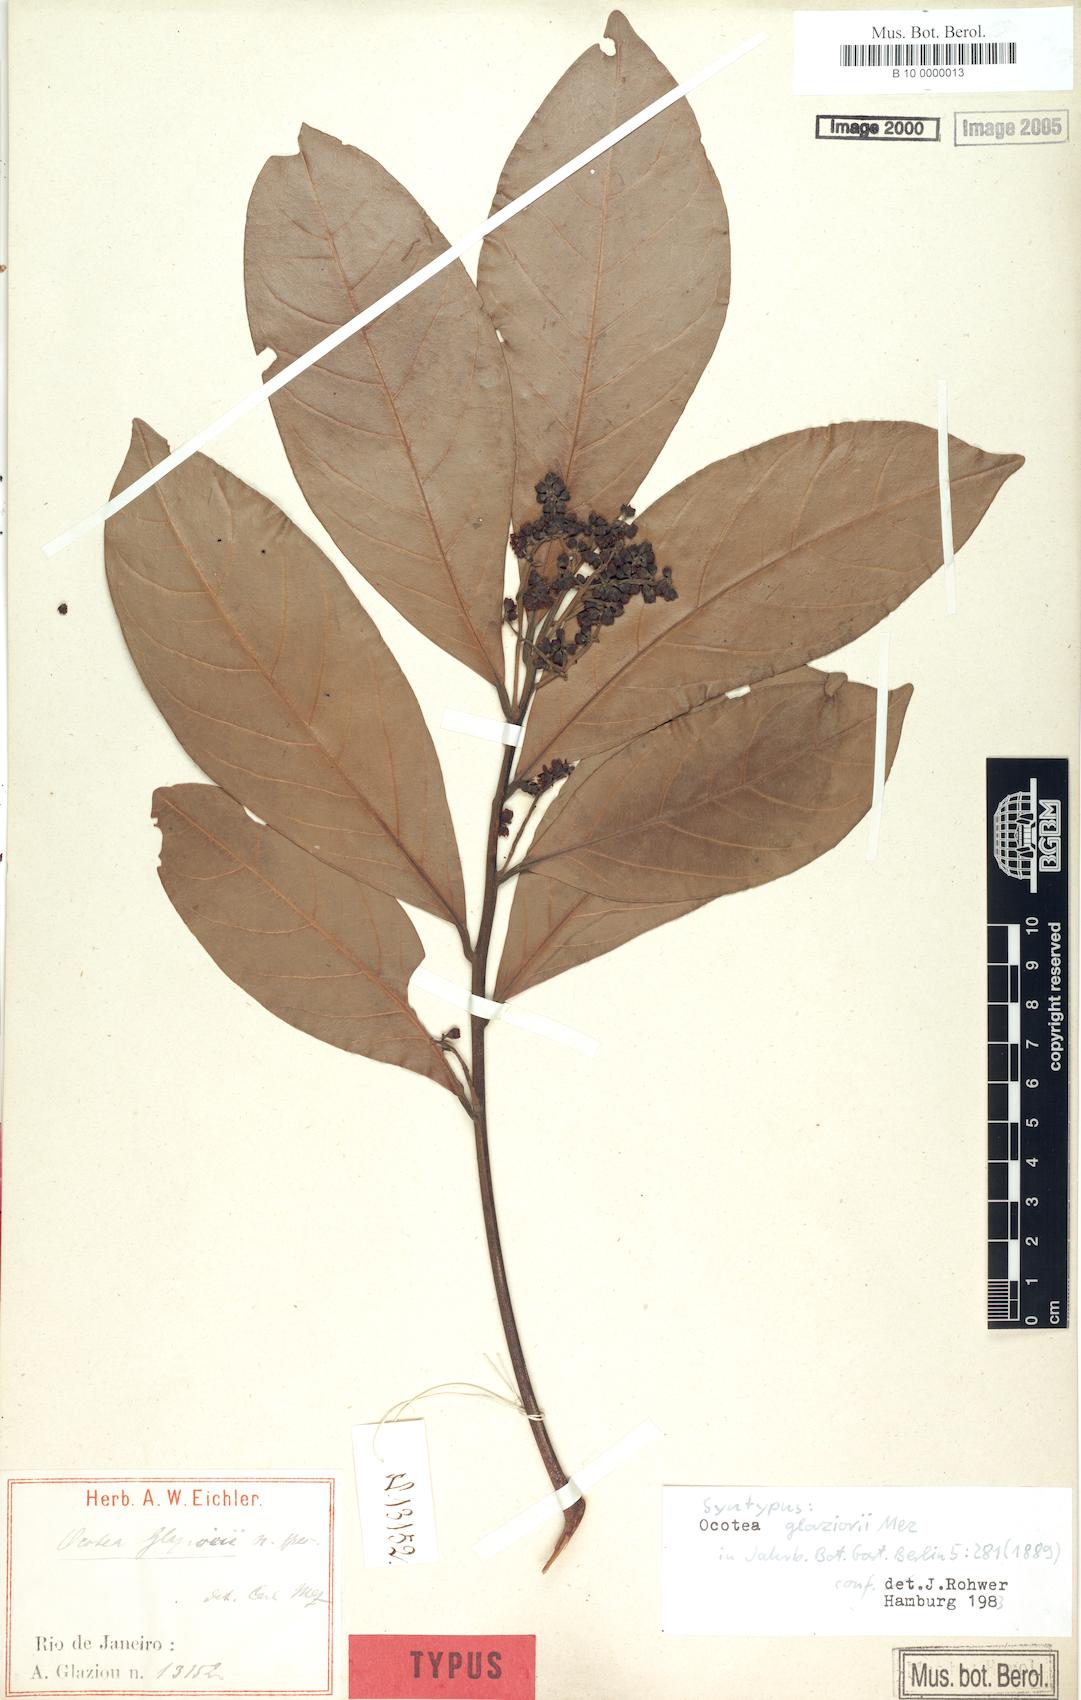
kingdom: Plantae
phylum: Tracheophyta
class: Magnoliopsida
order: Laurales
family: Lauraceae
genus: Ocotea
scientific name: Ocotea glaziovii
